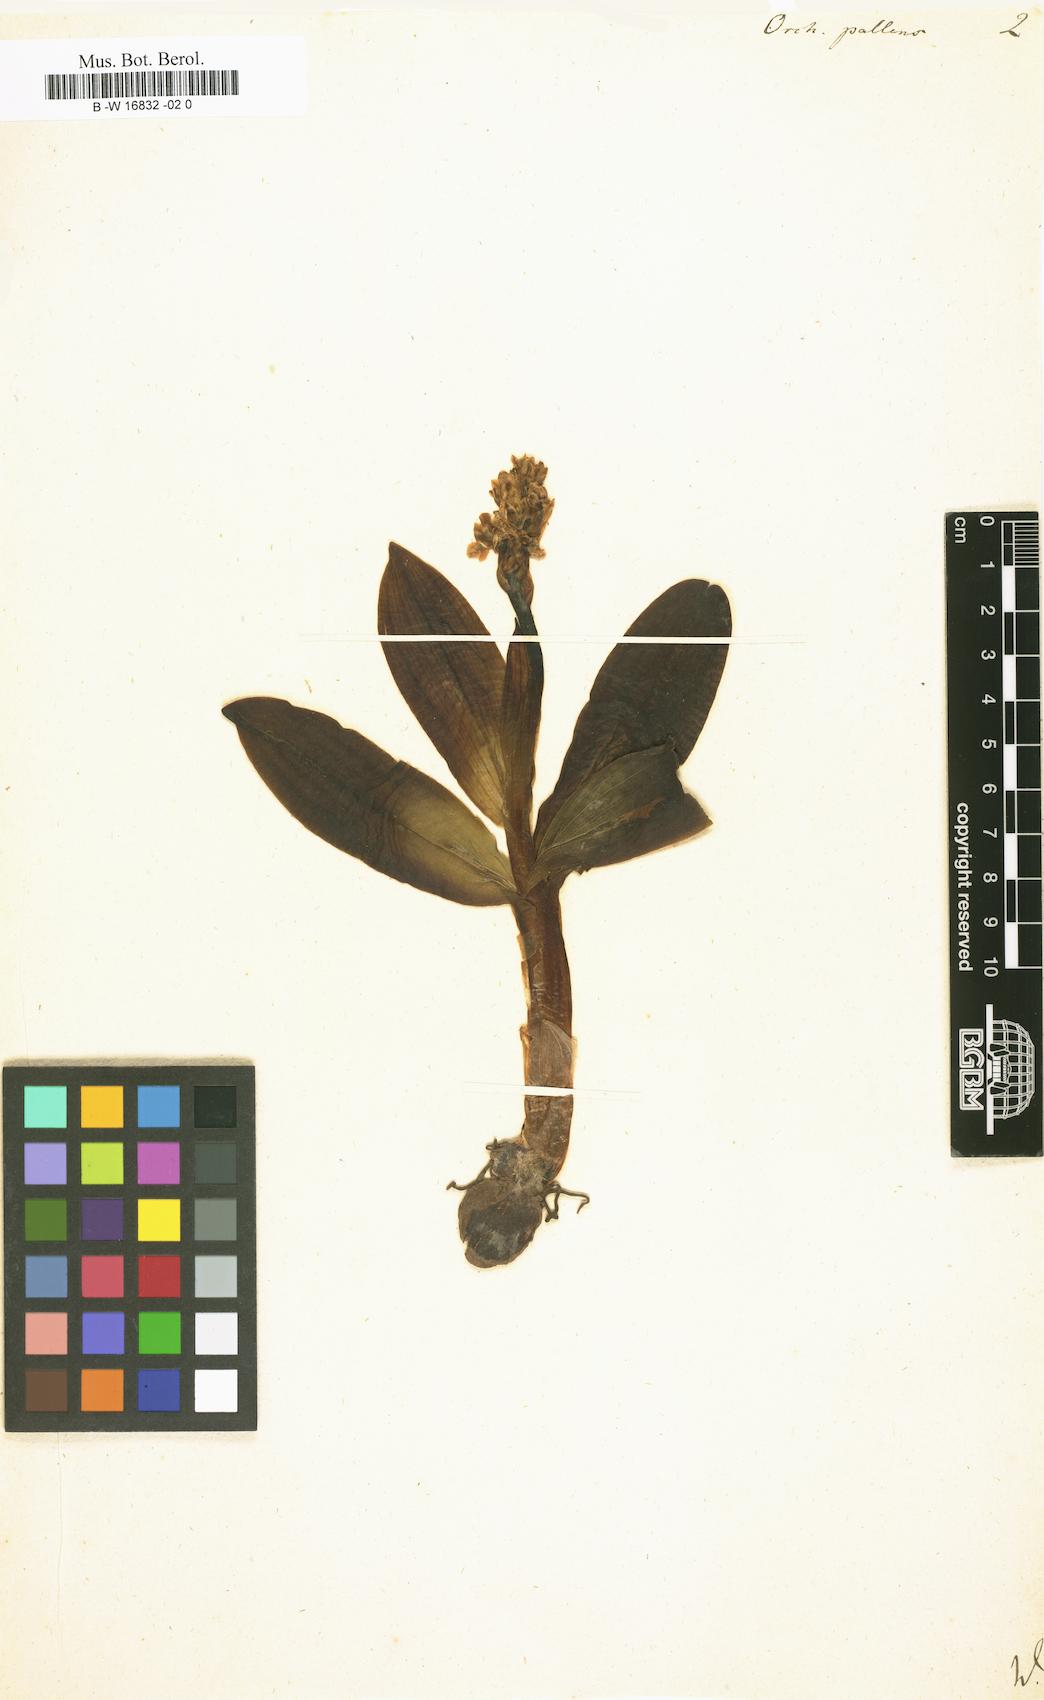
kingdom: Plantae
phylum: Tracheophyta
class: Liliopsida
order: Asparagales
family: Orchidaceae
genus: Orchis
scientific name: Orchis pallens
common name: Pale-flowered orchid
